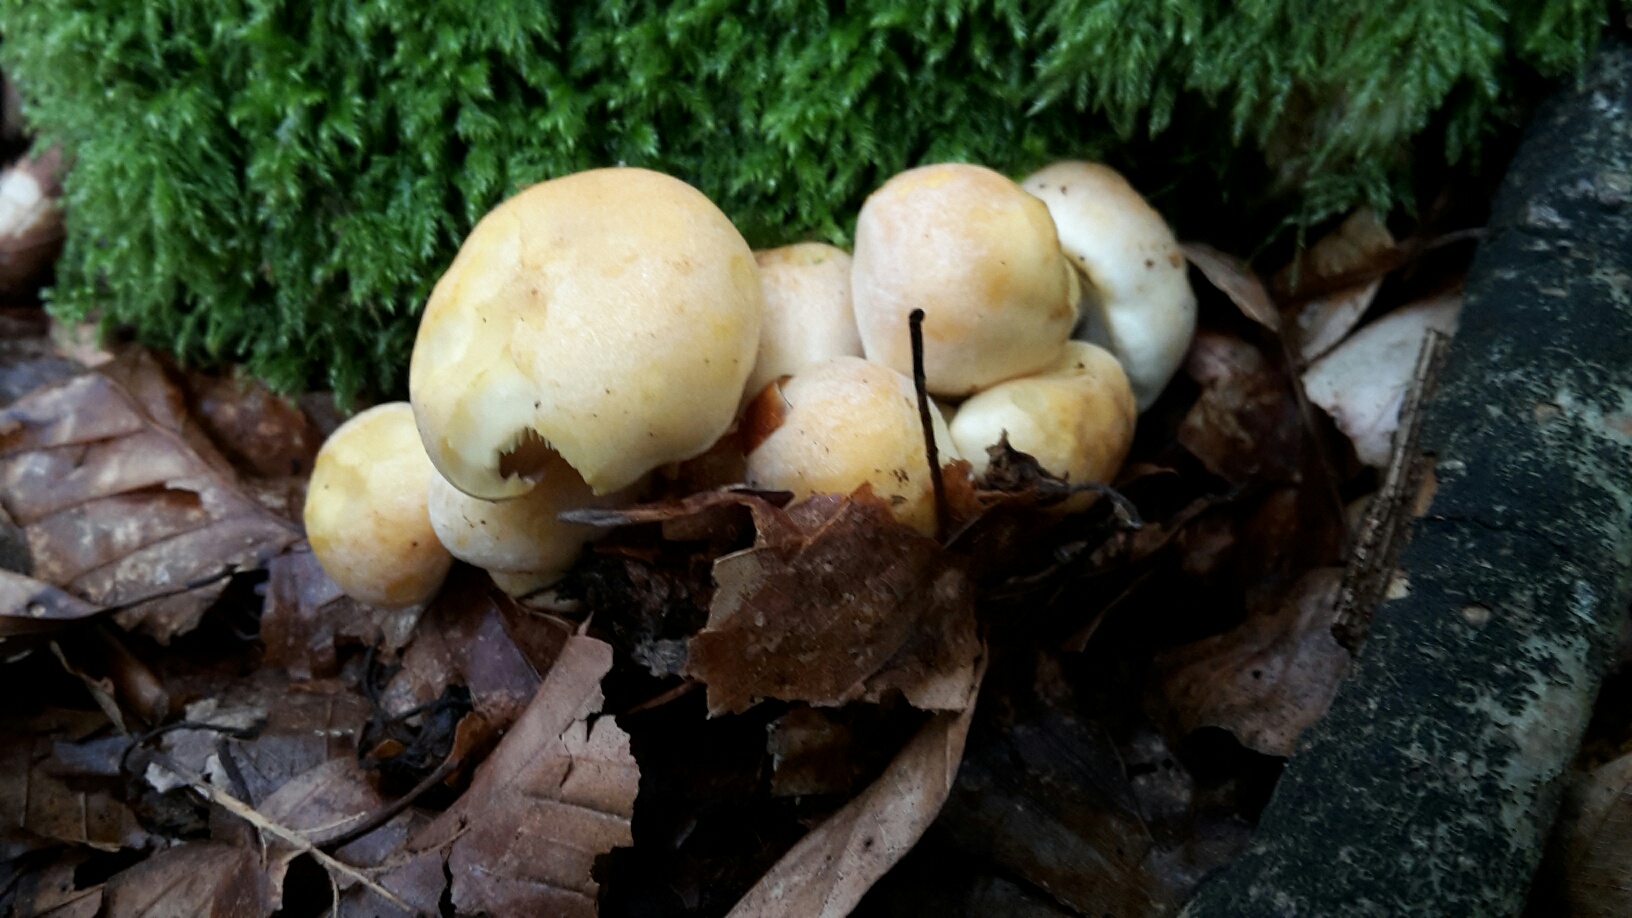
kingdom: Fungi
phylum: Basidiomycota
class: Agaricomycetes
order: Agaricales
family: Strophariaceae
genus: Hypholoma
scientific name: Hypholoma fasciculare
